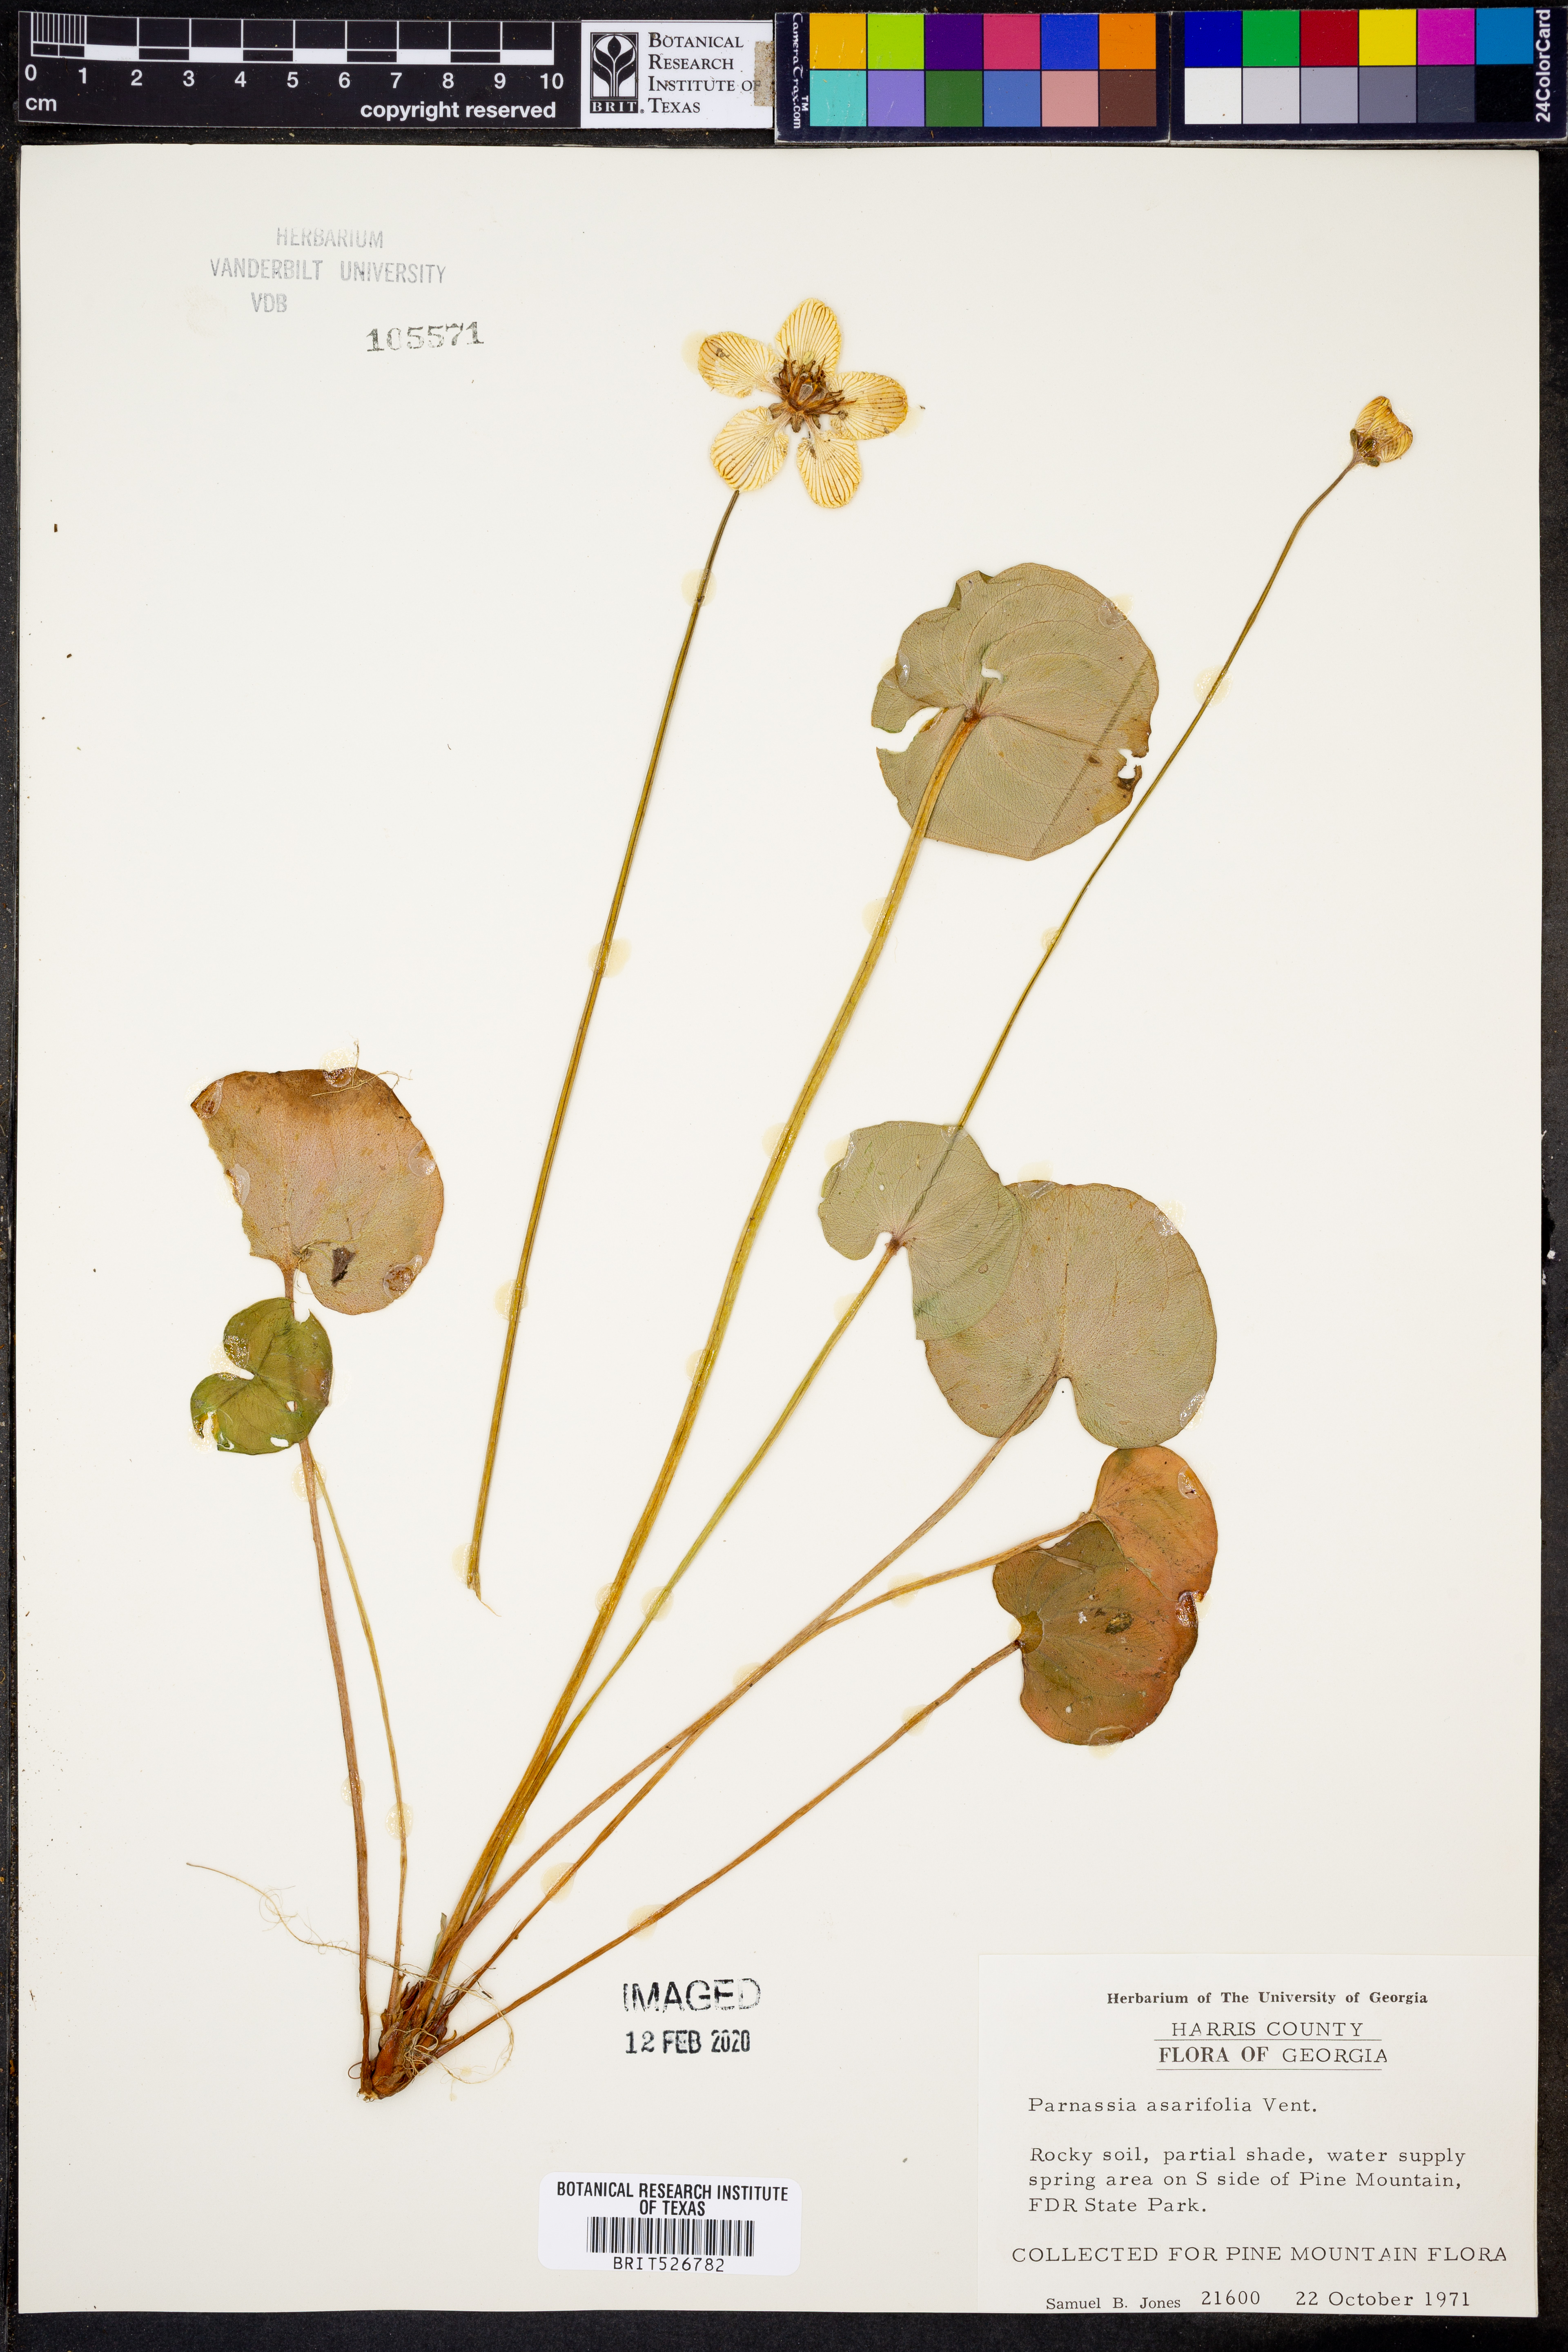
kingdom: Plantae
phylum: Tracheophyta
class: Magnoliopsida
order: Celastrales
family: Parnassiaceae
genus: Parnassia
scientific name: Parnassia asarifolia
